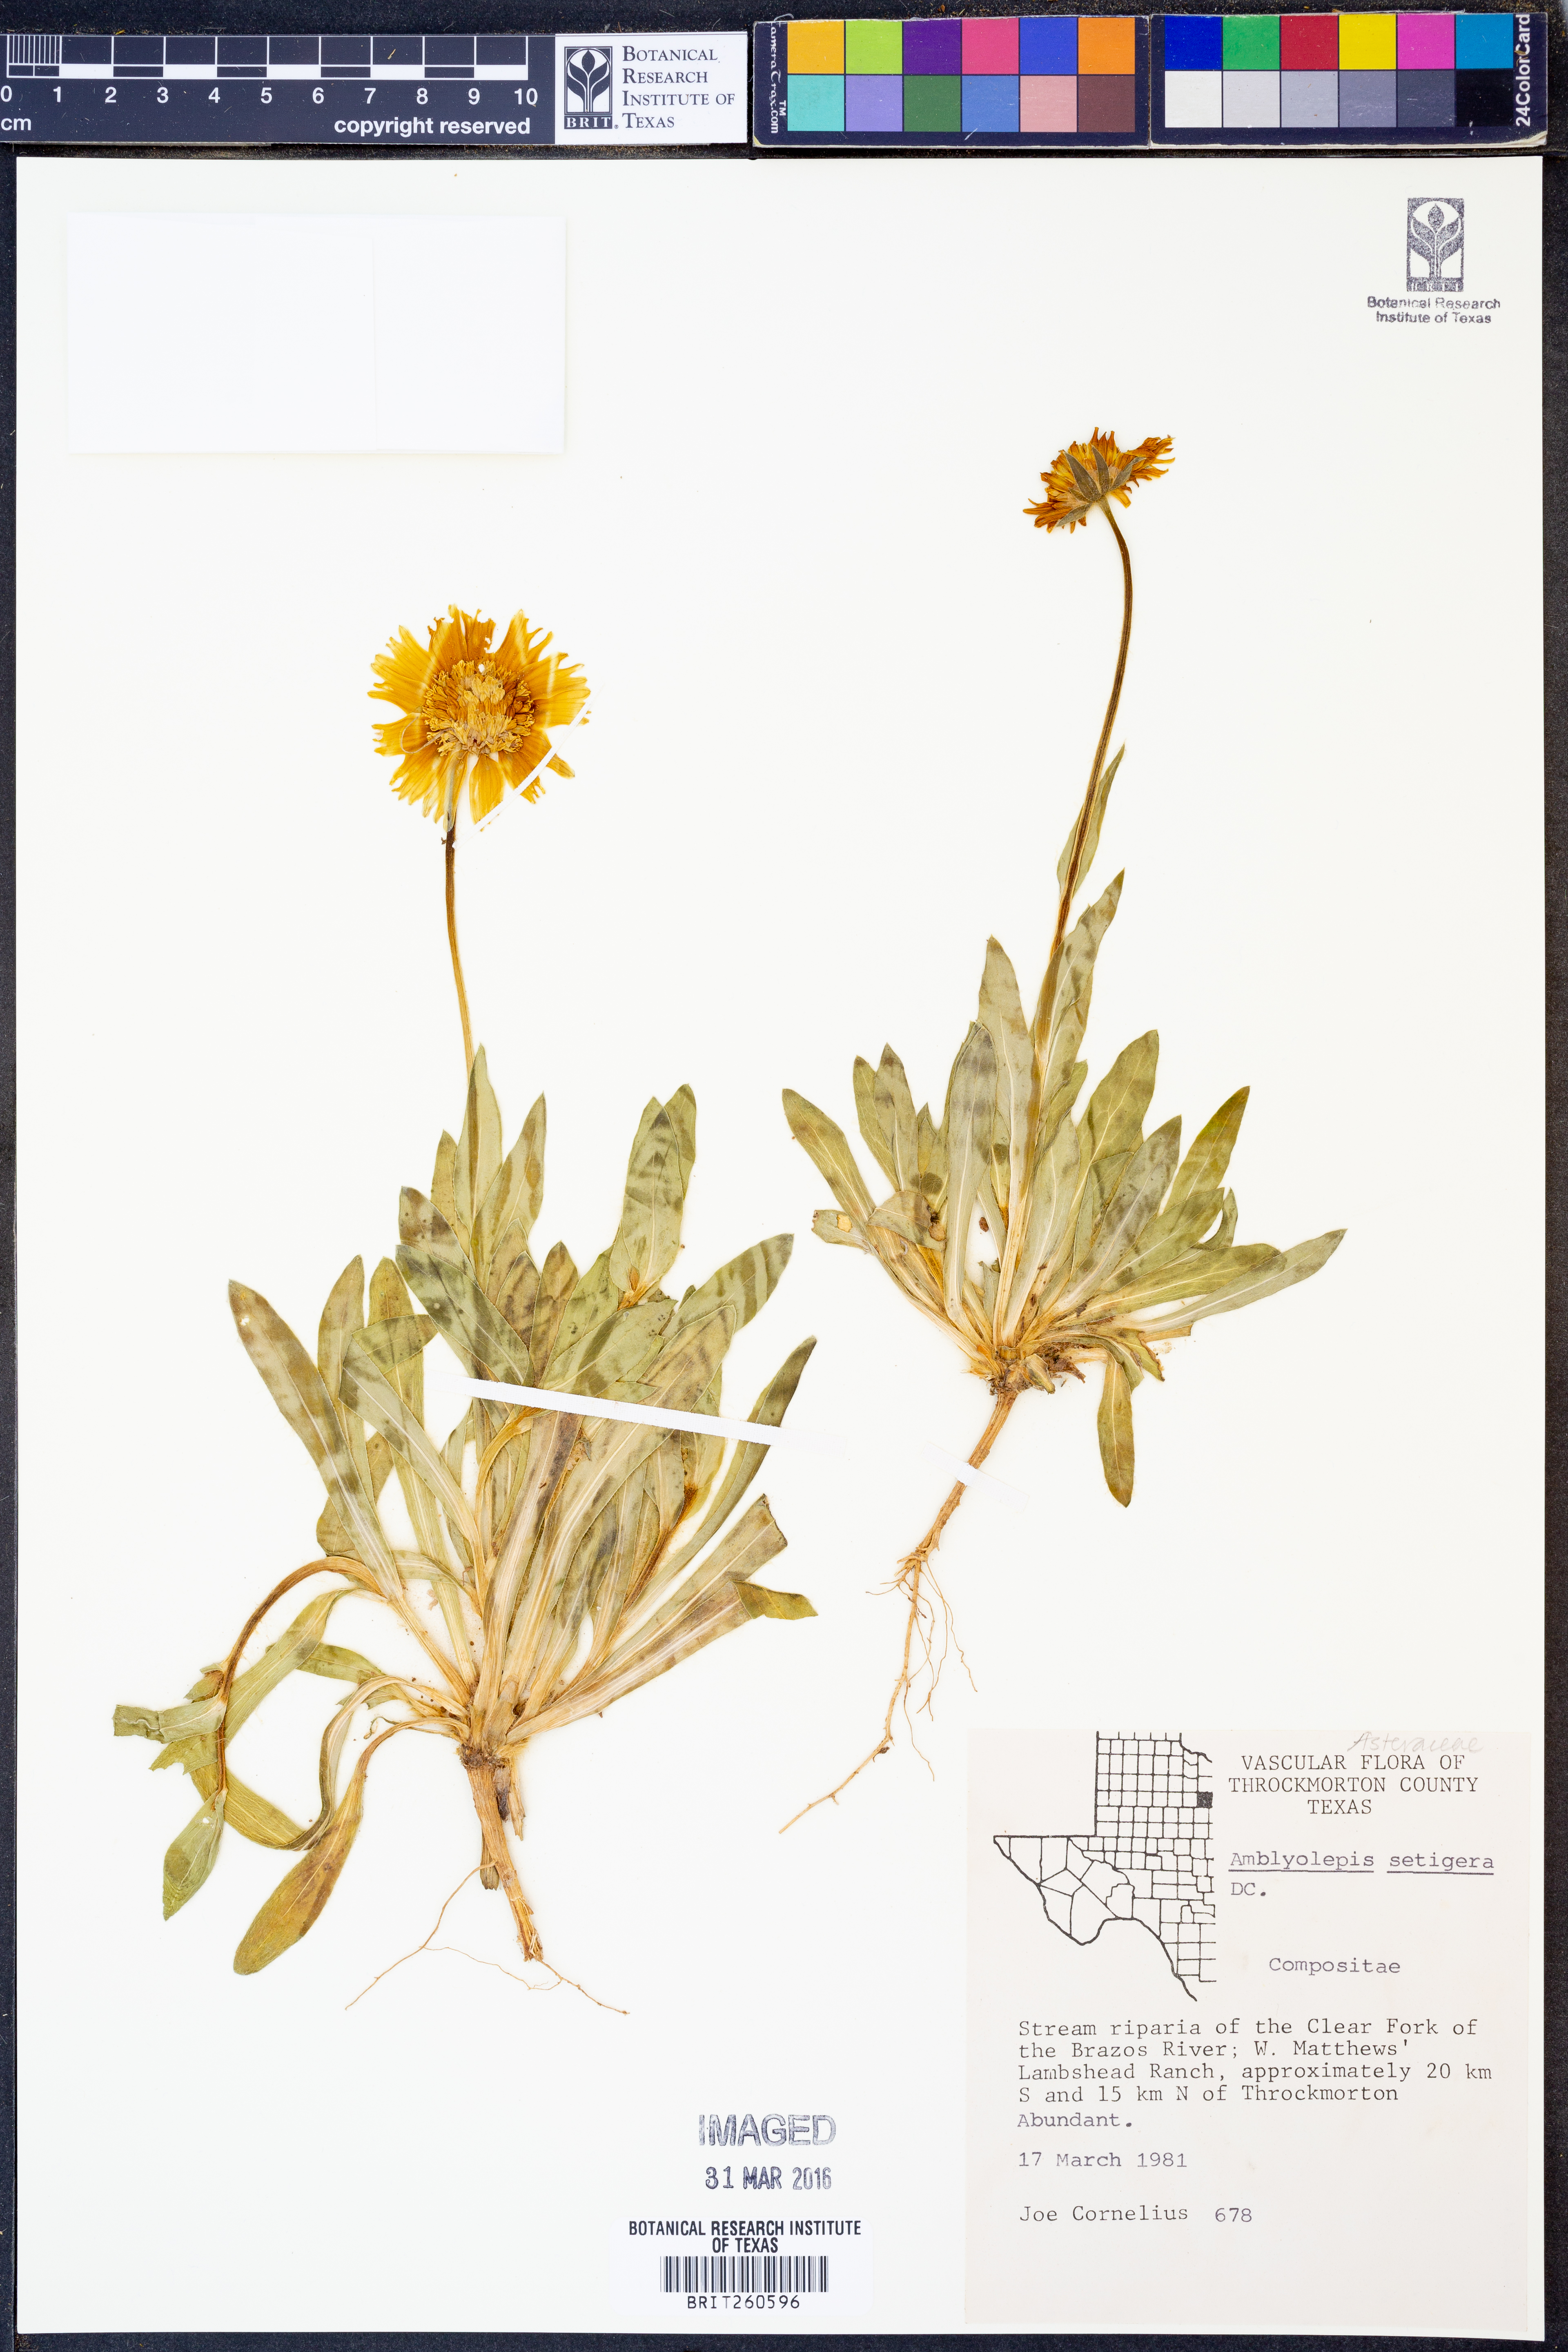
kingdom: Plantae
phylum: Tracheophyta
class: Magnoliopsida
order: Asterales
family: Asteraceae
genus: Amblyolepis
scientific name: Amblyolepis setigera
